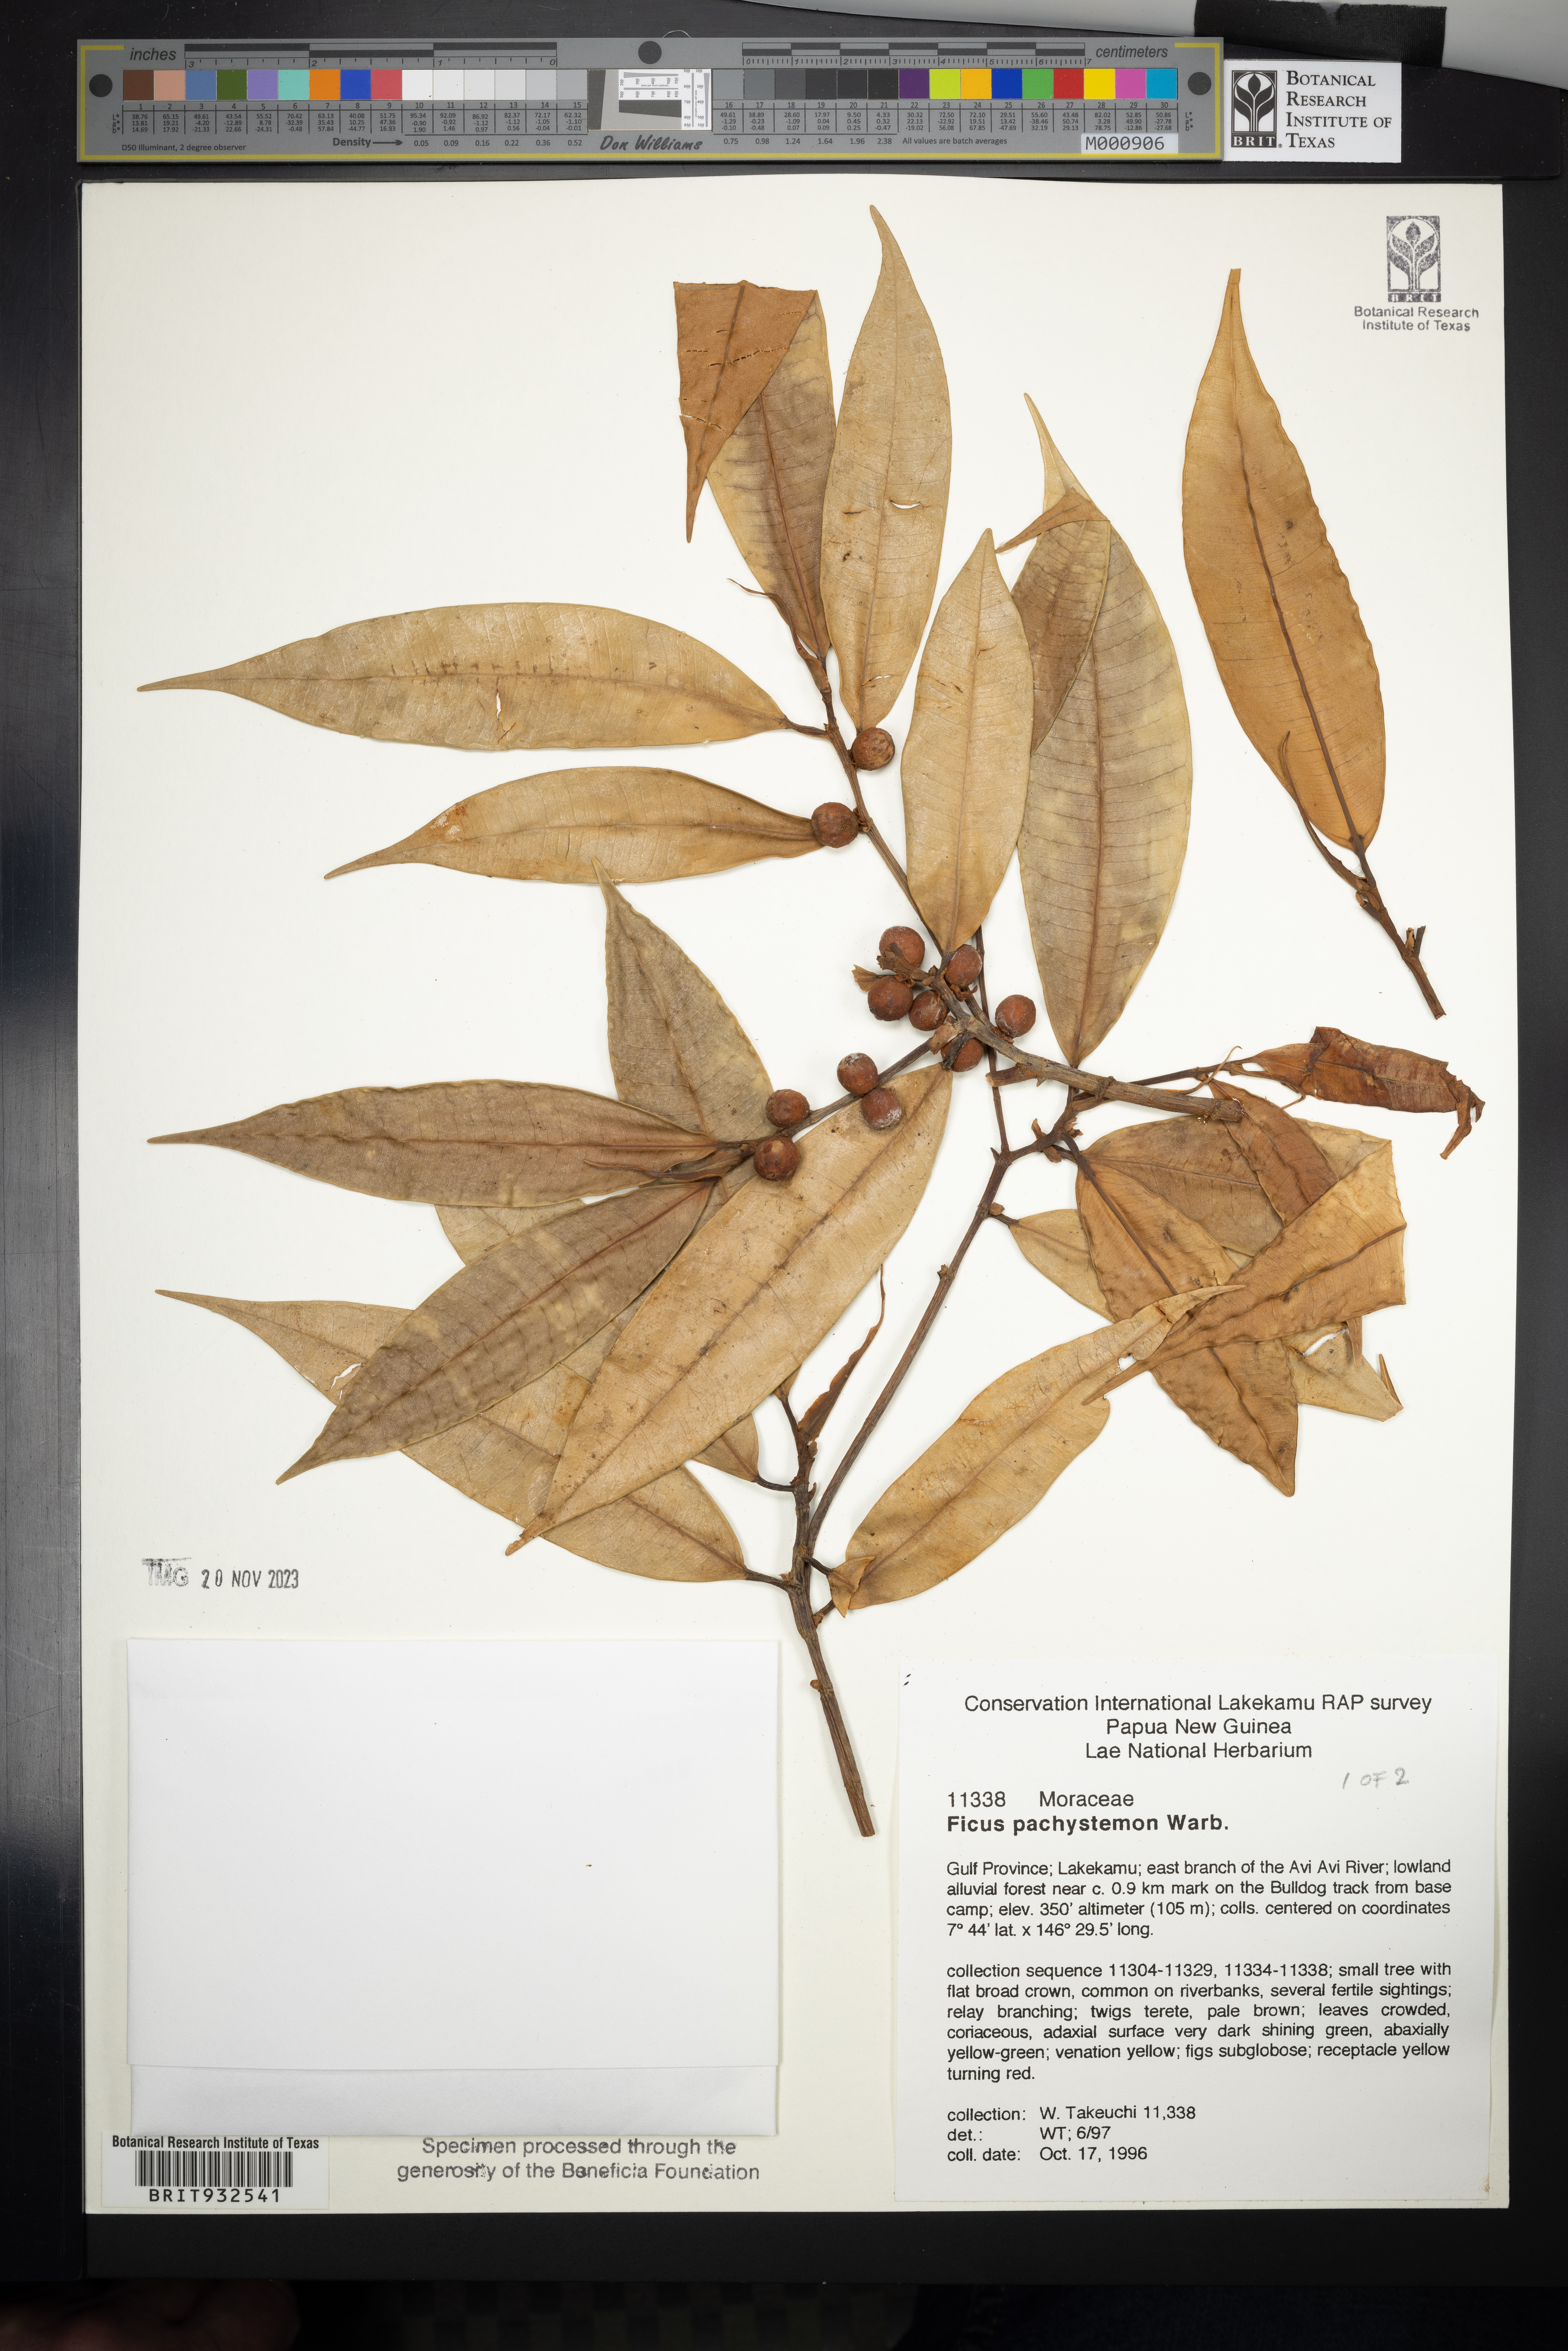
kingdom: Plantae
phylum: Tracheophyta
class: Magnoliopsida
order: Rosales
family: Moraceae
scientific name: Moraceae
